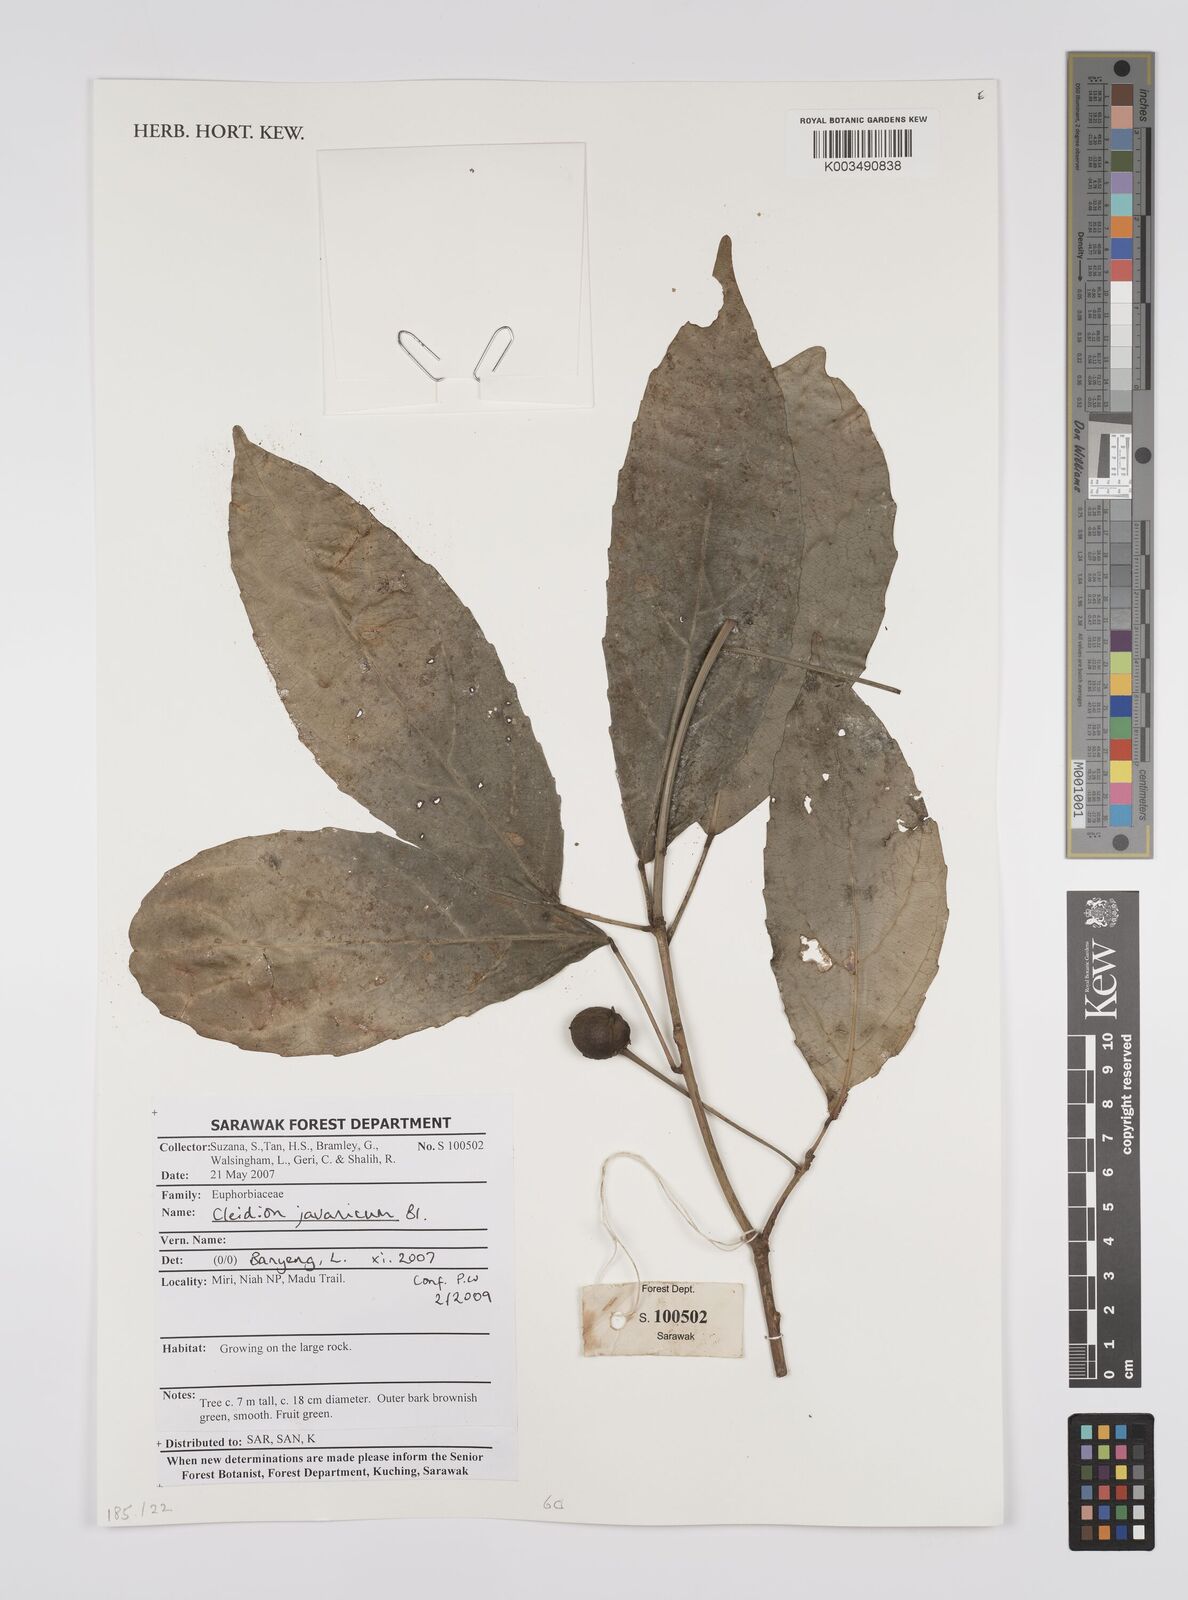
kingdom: Plantae
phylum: Tracheophyta
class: Magnoliopsida
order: Malpighiales
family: Euphorbiaceae
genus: Cleidion
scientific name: Cleidion javanicum
